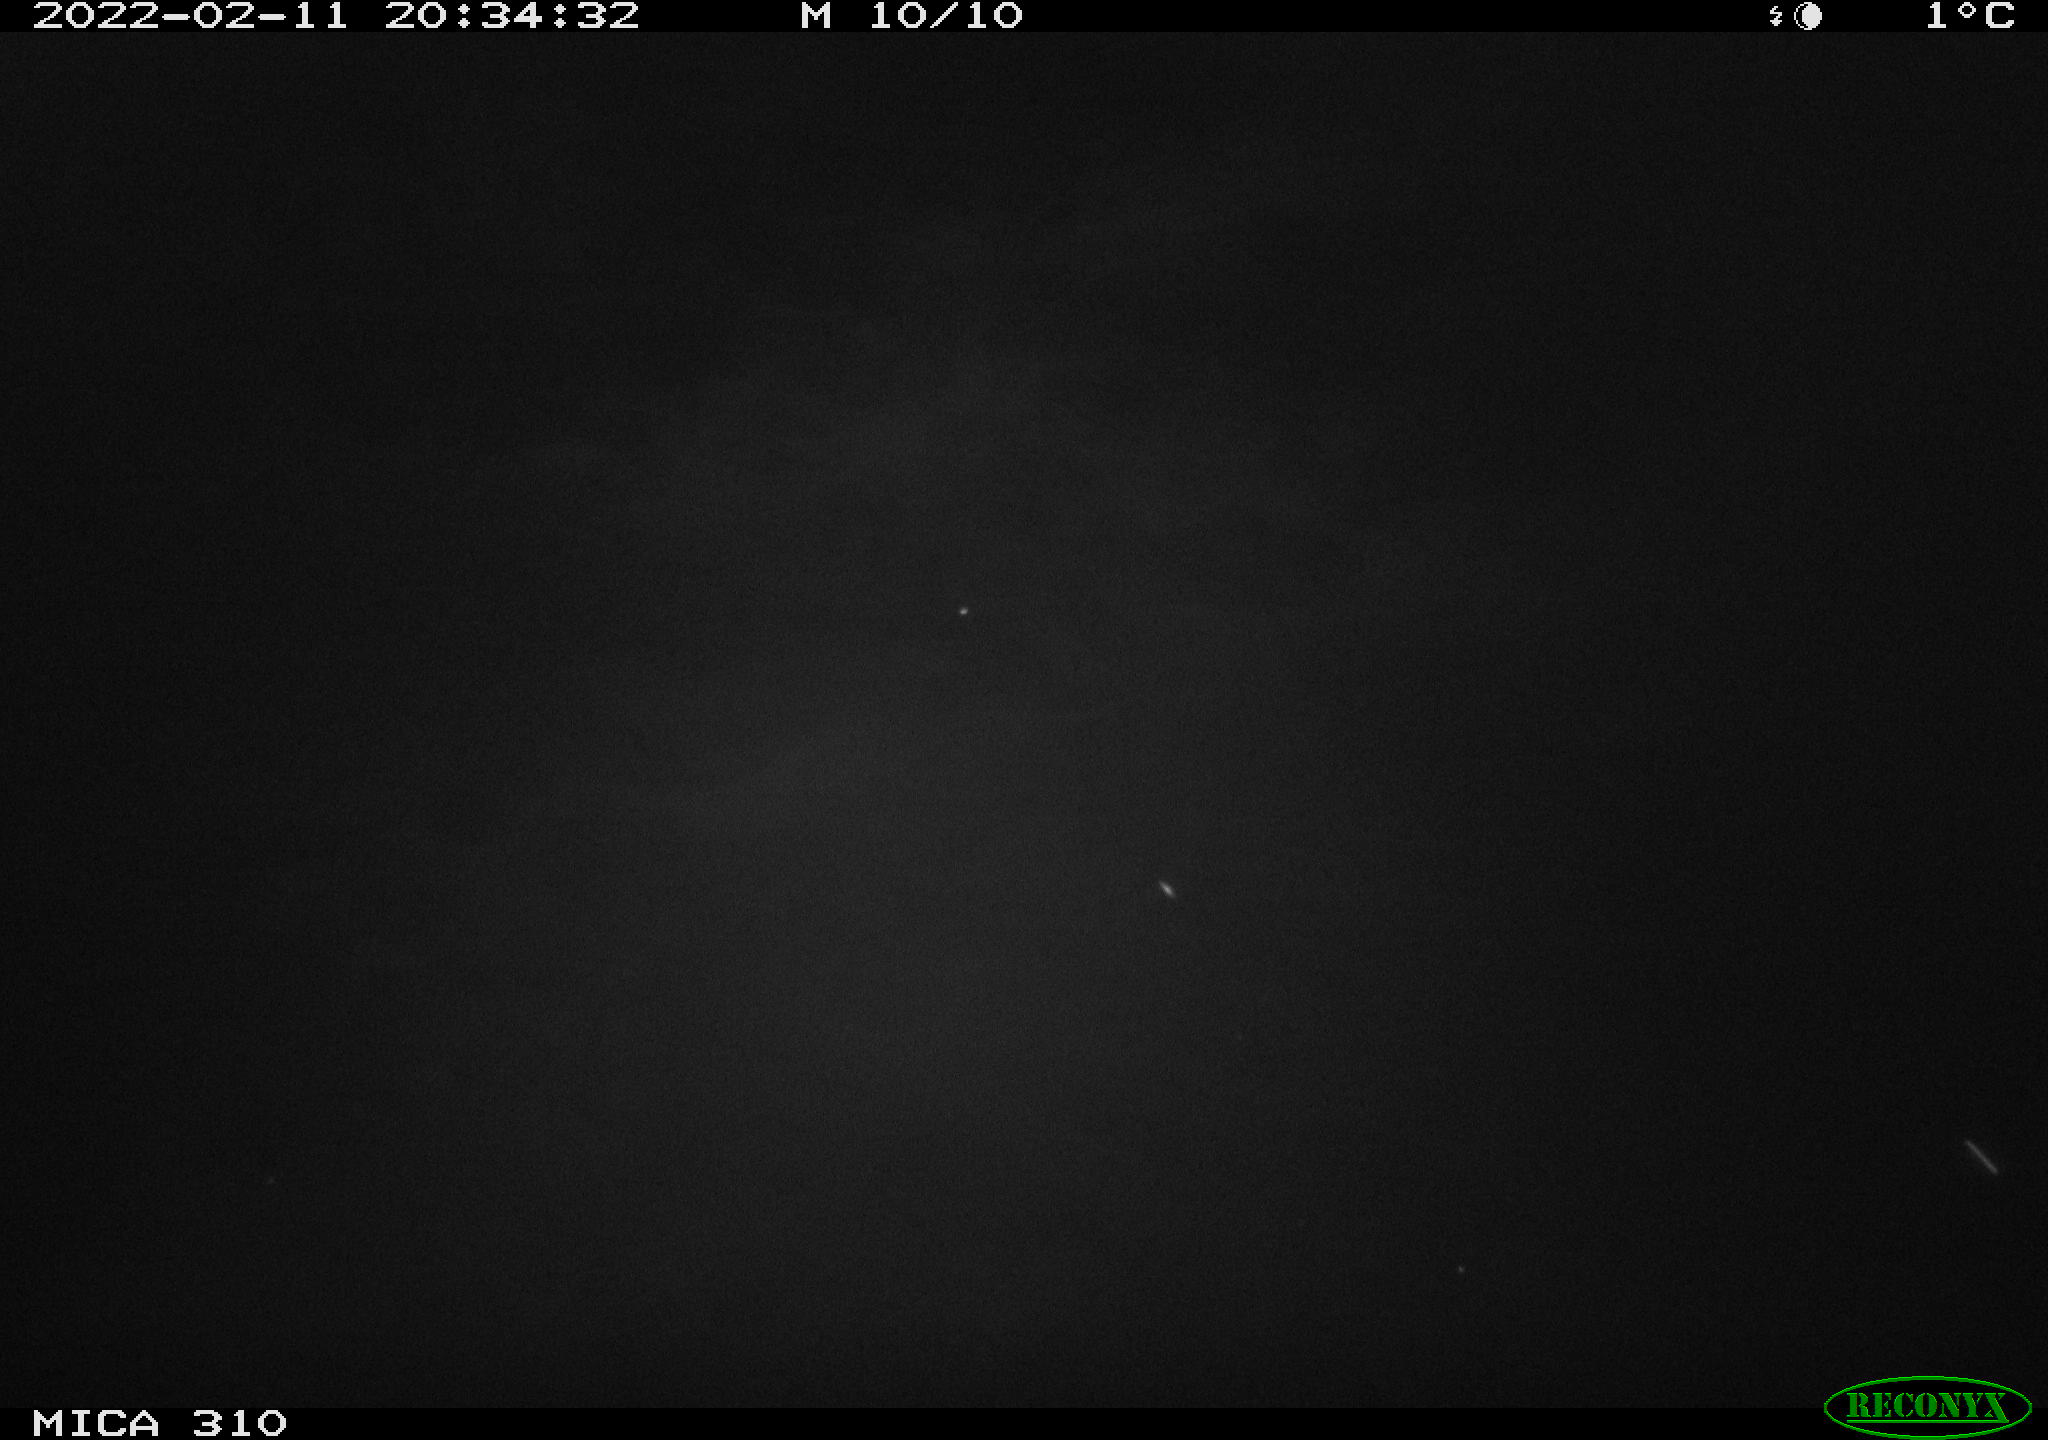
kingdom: Animalia
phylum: Chordata
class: Aves
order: Gruiformes
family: Rallidae
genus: Fulica
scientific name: Fulica atra
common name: Eurasian coot
